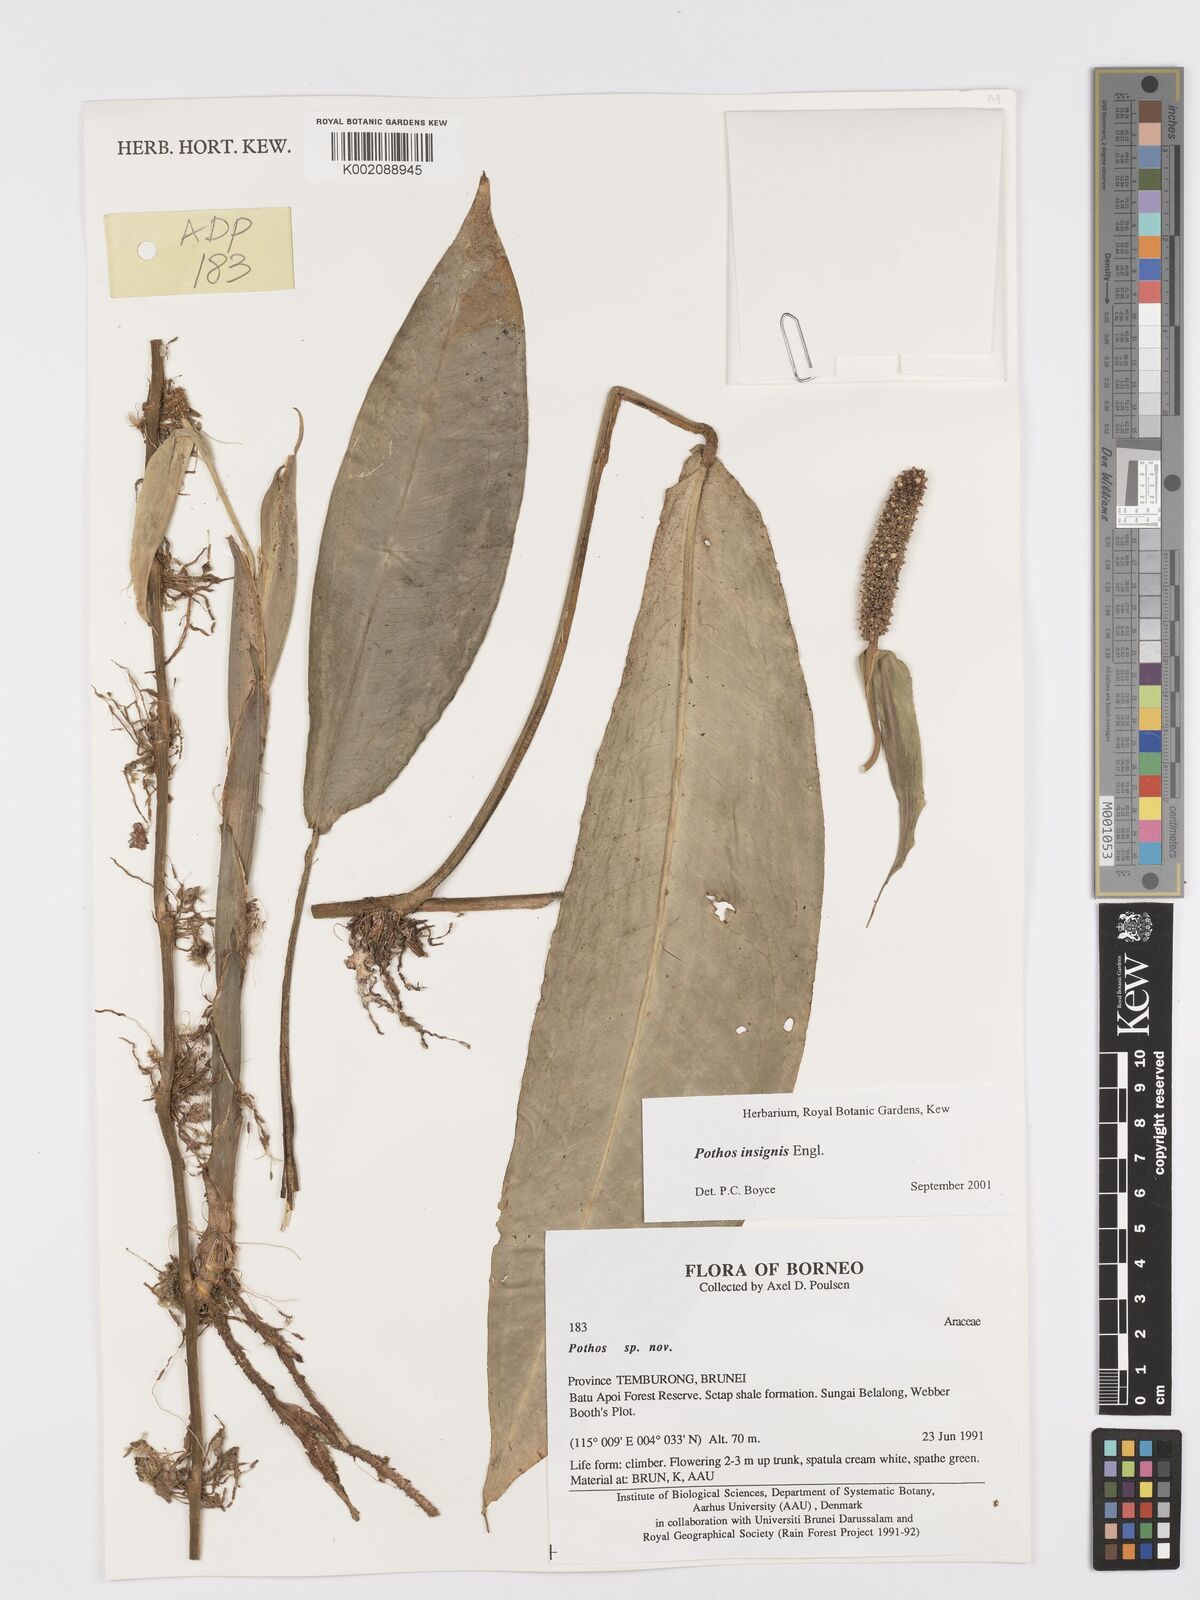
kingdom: Plantae
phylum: Tracheophyta
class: Liliopsida
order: Alismatales
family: Araceae
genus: Pothos
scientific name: Pothos insignis
